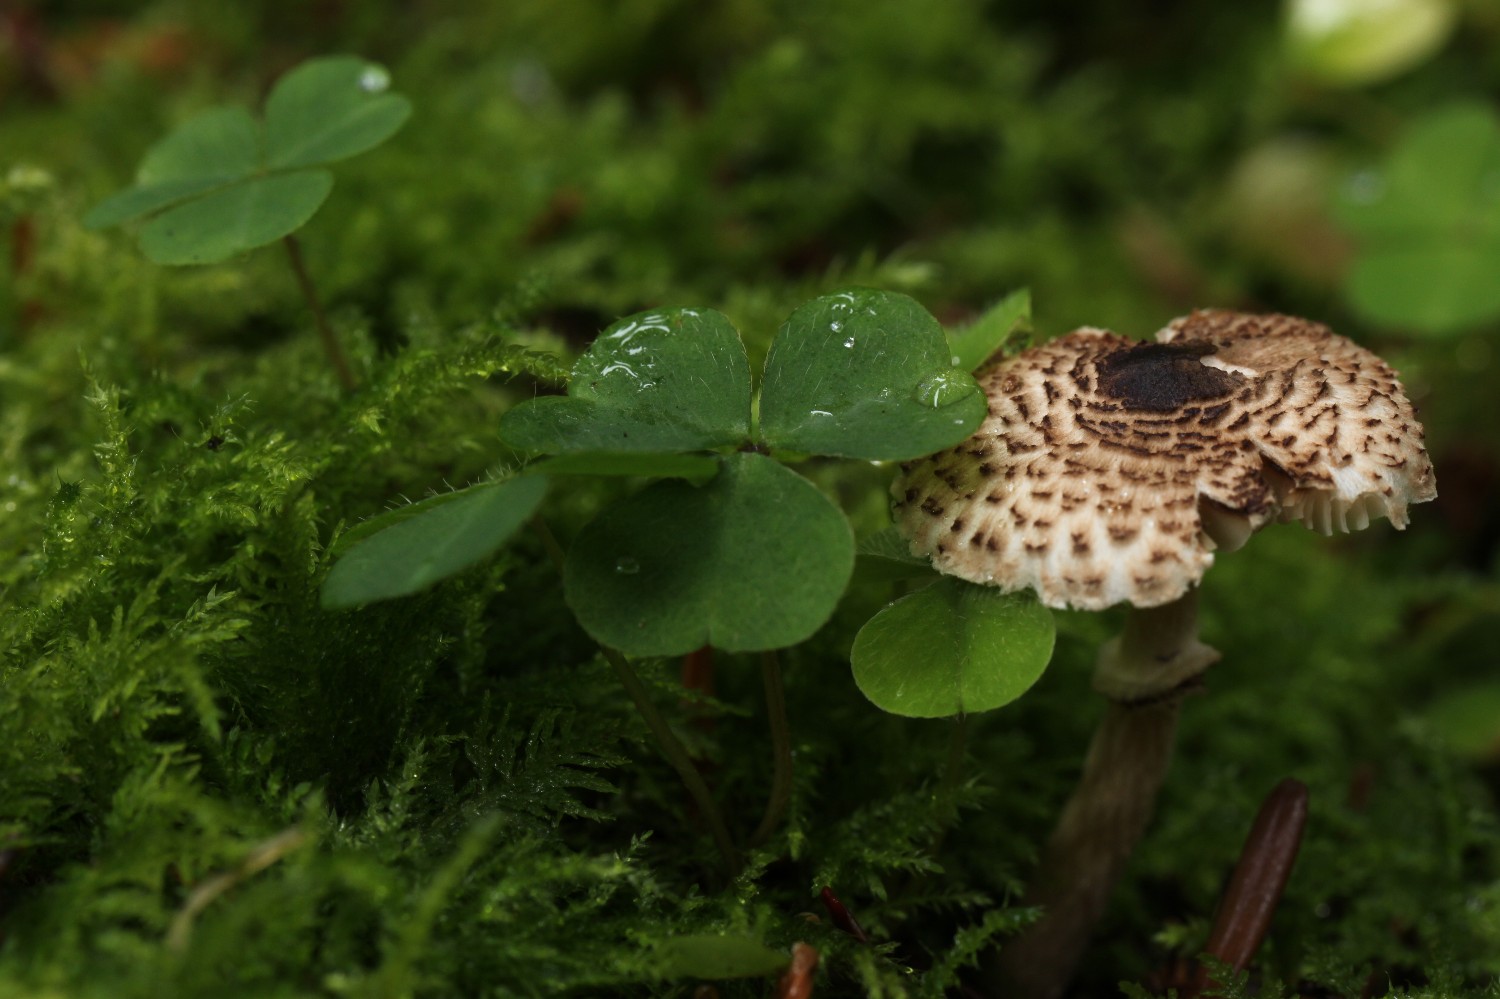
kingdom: Fungi
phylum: Basidiomycota
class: Agaricomycetes
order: Agaricales
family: Agaricaceae
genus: Lepiota
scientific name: Lepiota felina
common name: sortskællet parasolhat
